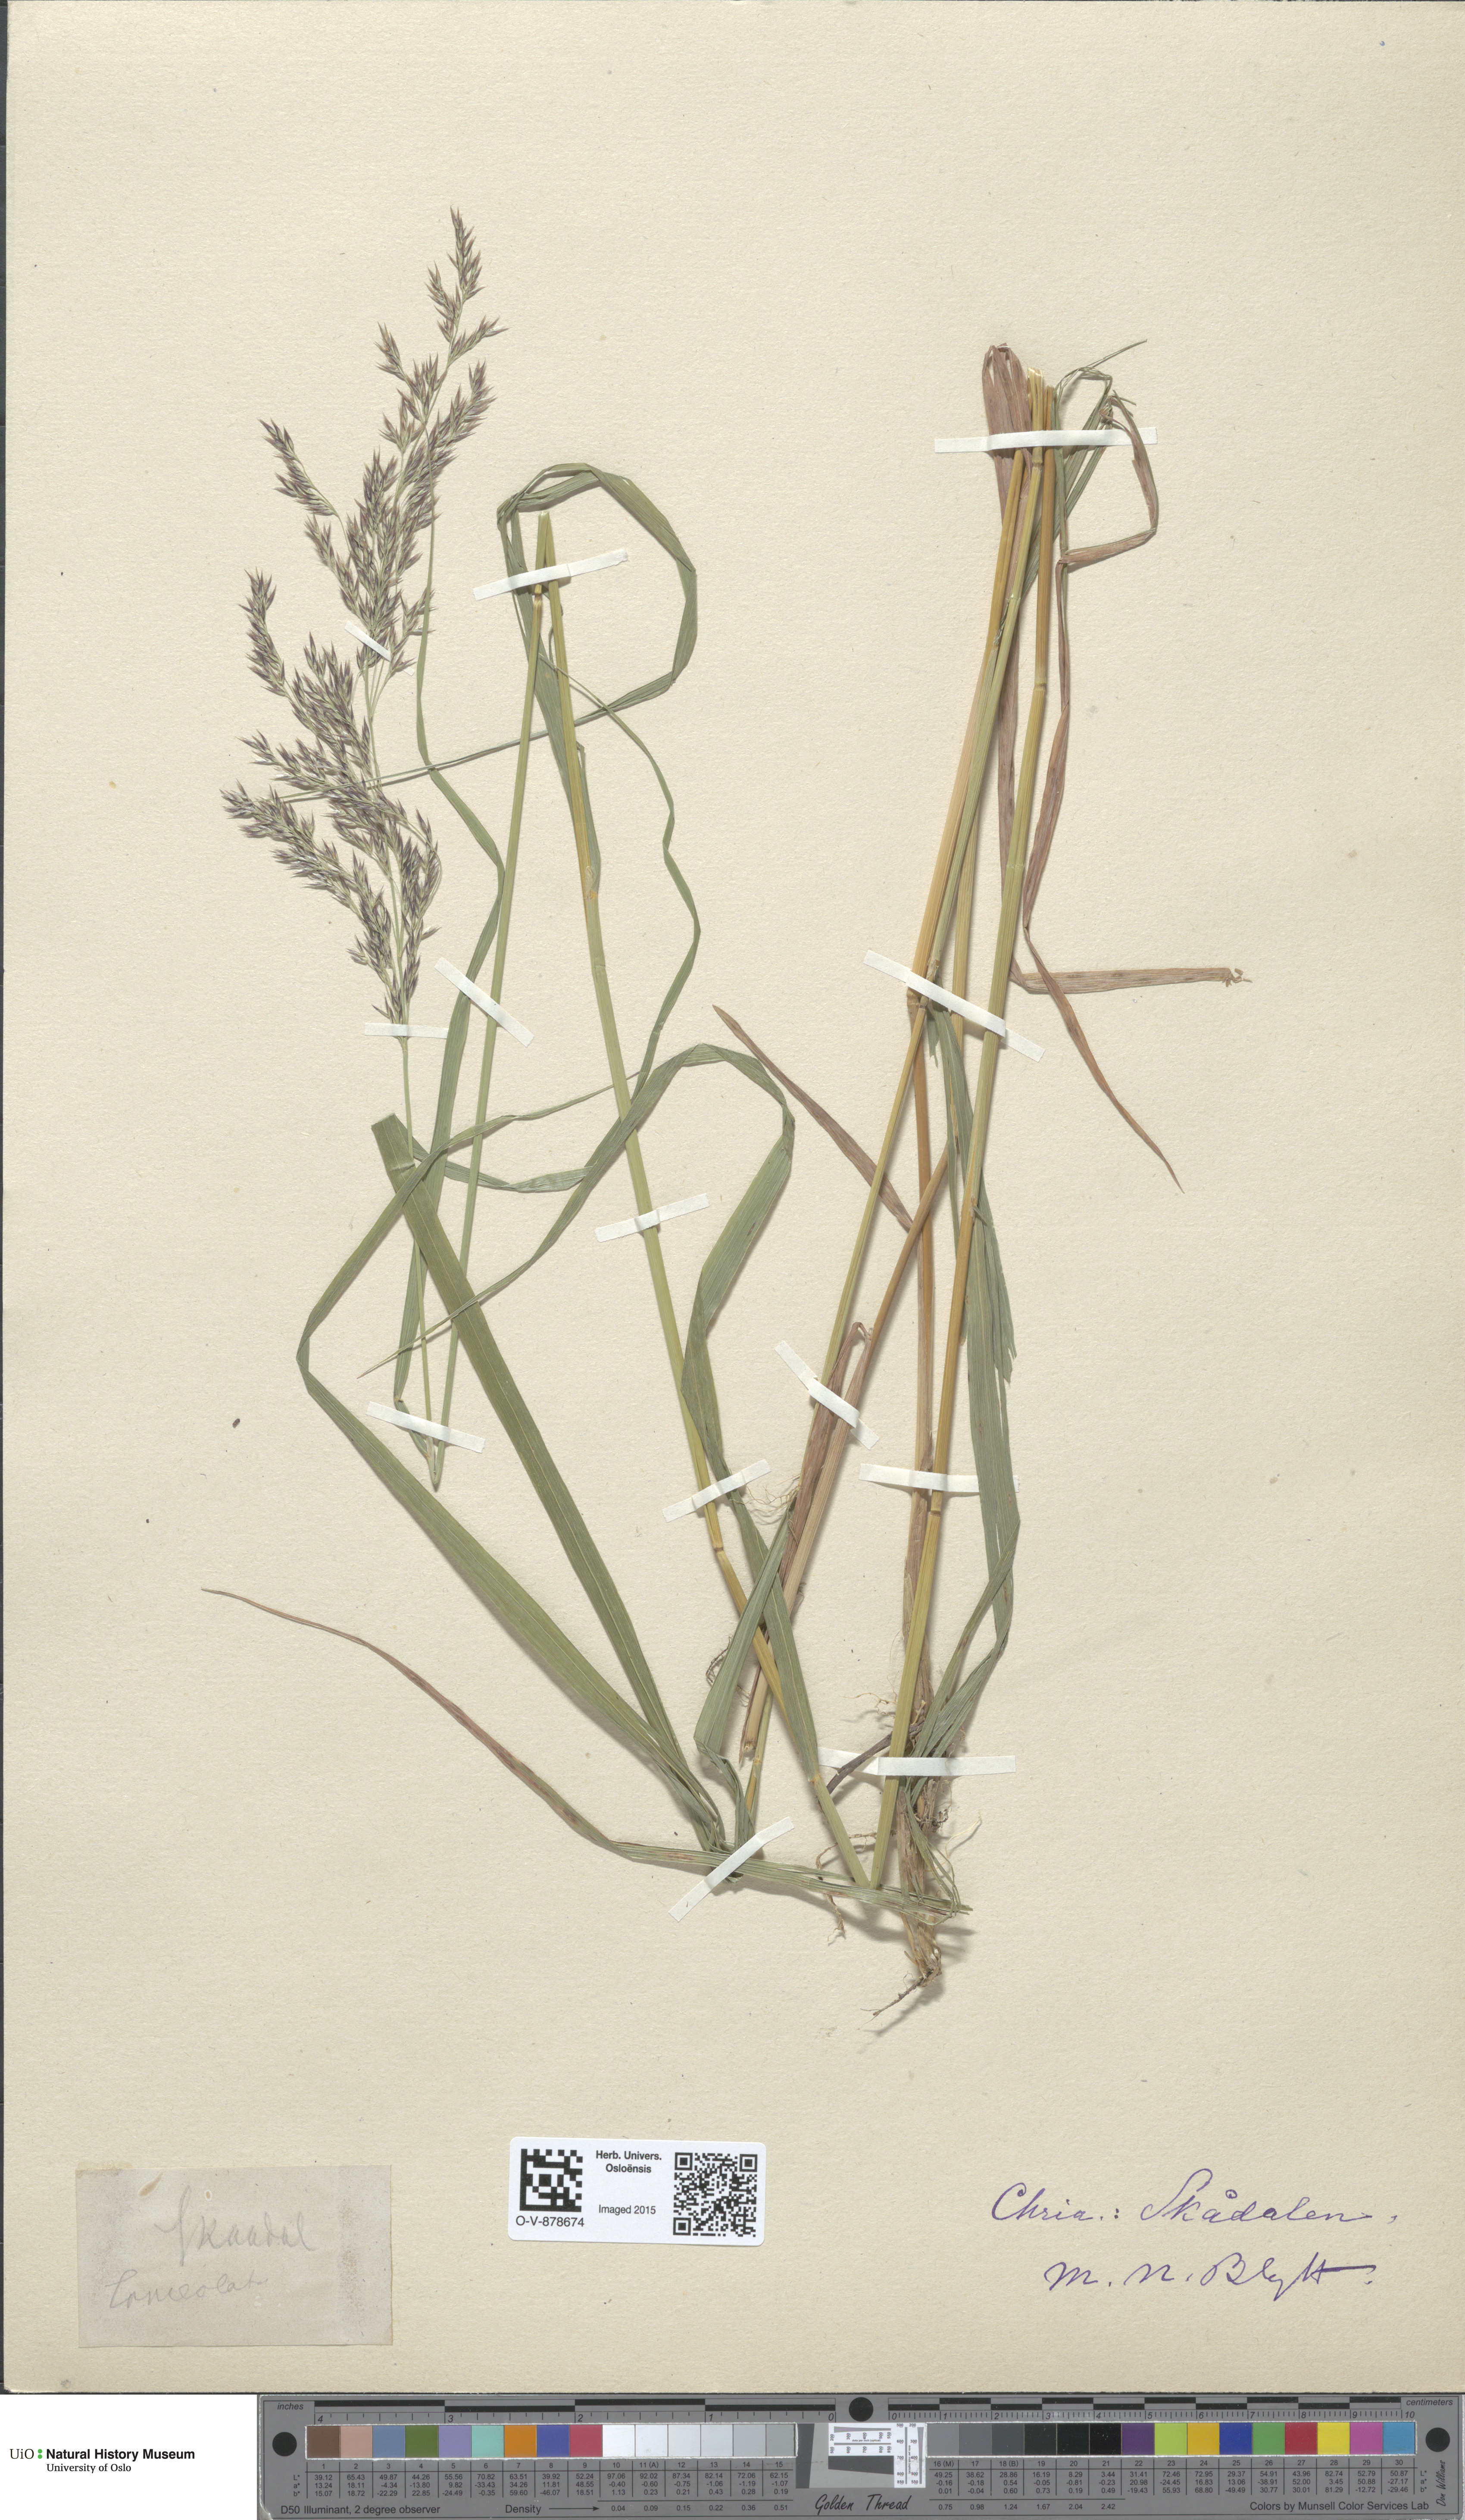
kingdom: Plantae
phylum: Tracheophyta
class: Liliopsida
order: Poales
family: Poaceae
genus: Calamagrostis
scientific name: Calamagrostis purpurea
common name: Scandinavian small-reed
